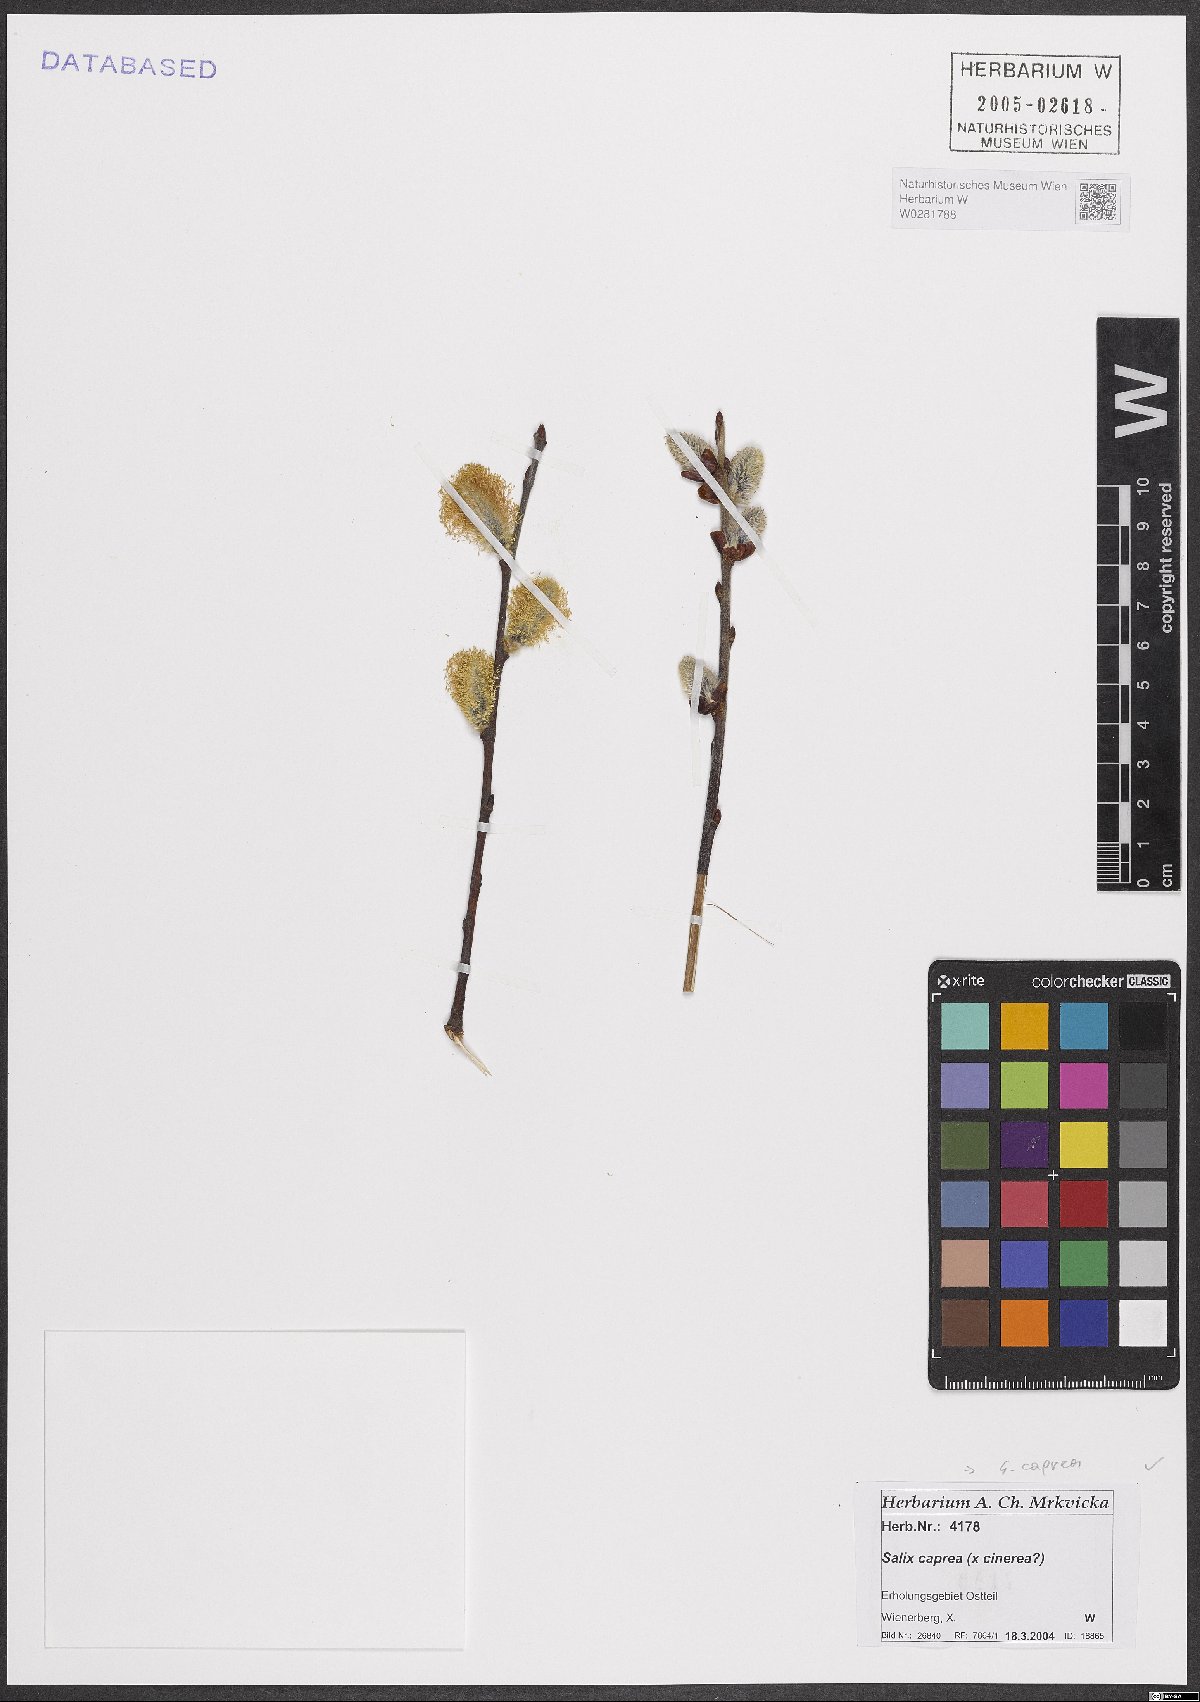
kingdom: Plantae
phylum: Tracheophyta
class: Magnoliopsida
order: Malpighiales
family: Salicaceae
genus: Salix
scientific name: Salix caprea
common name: Goat willow
